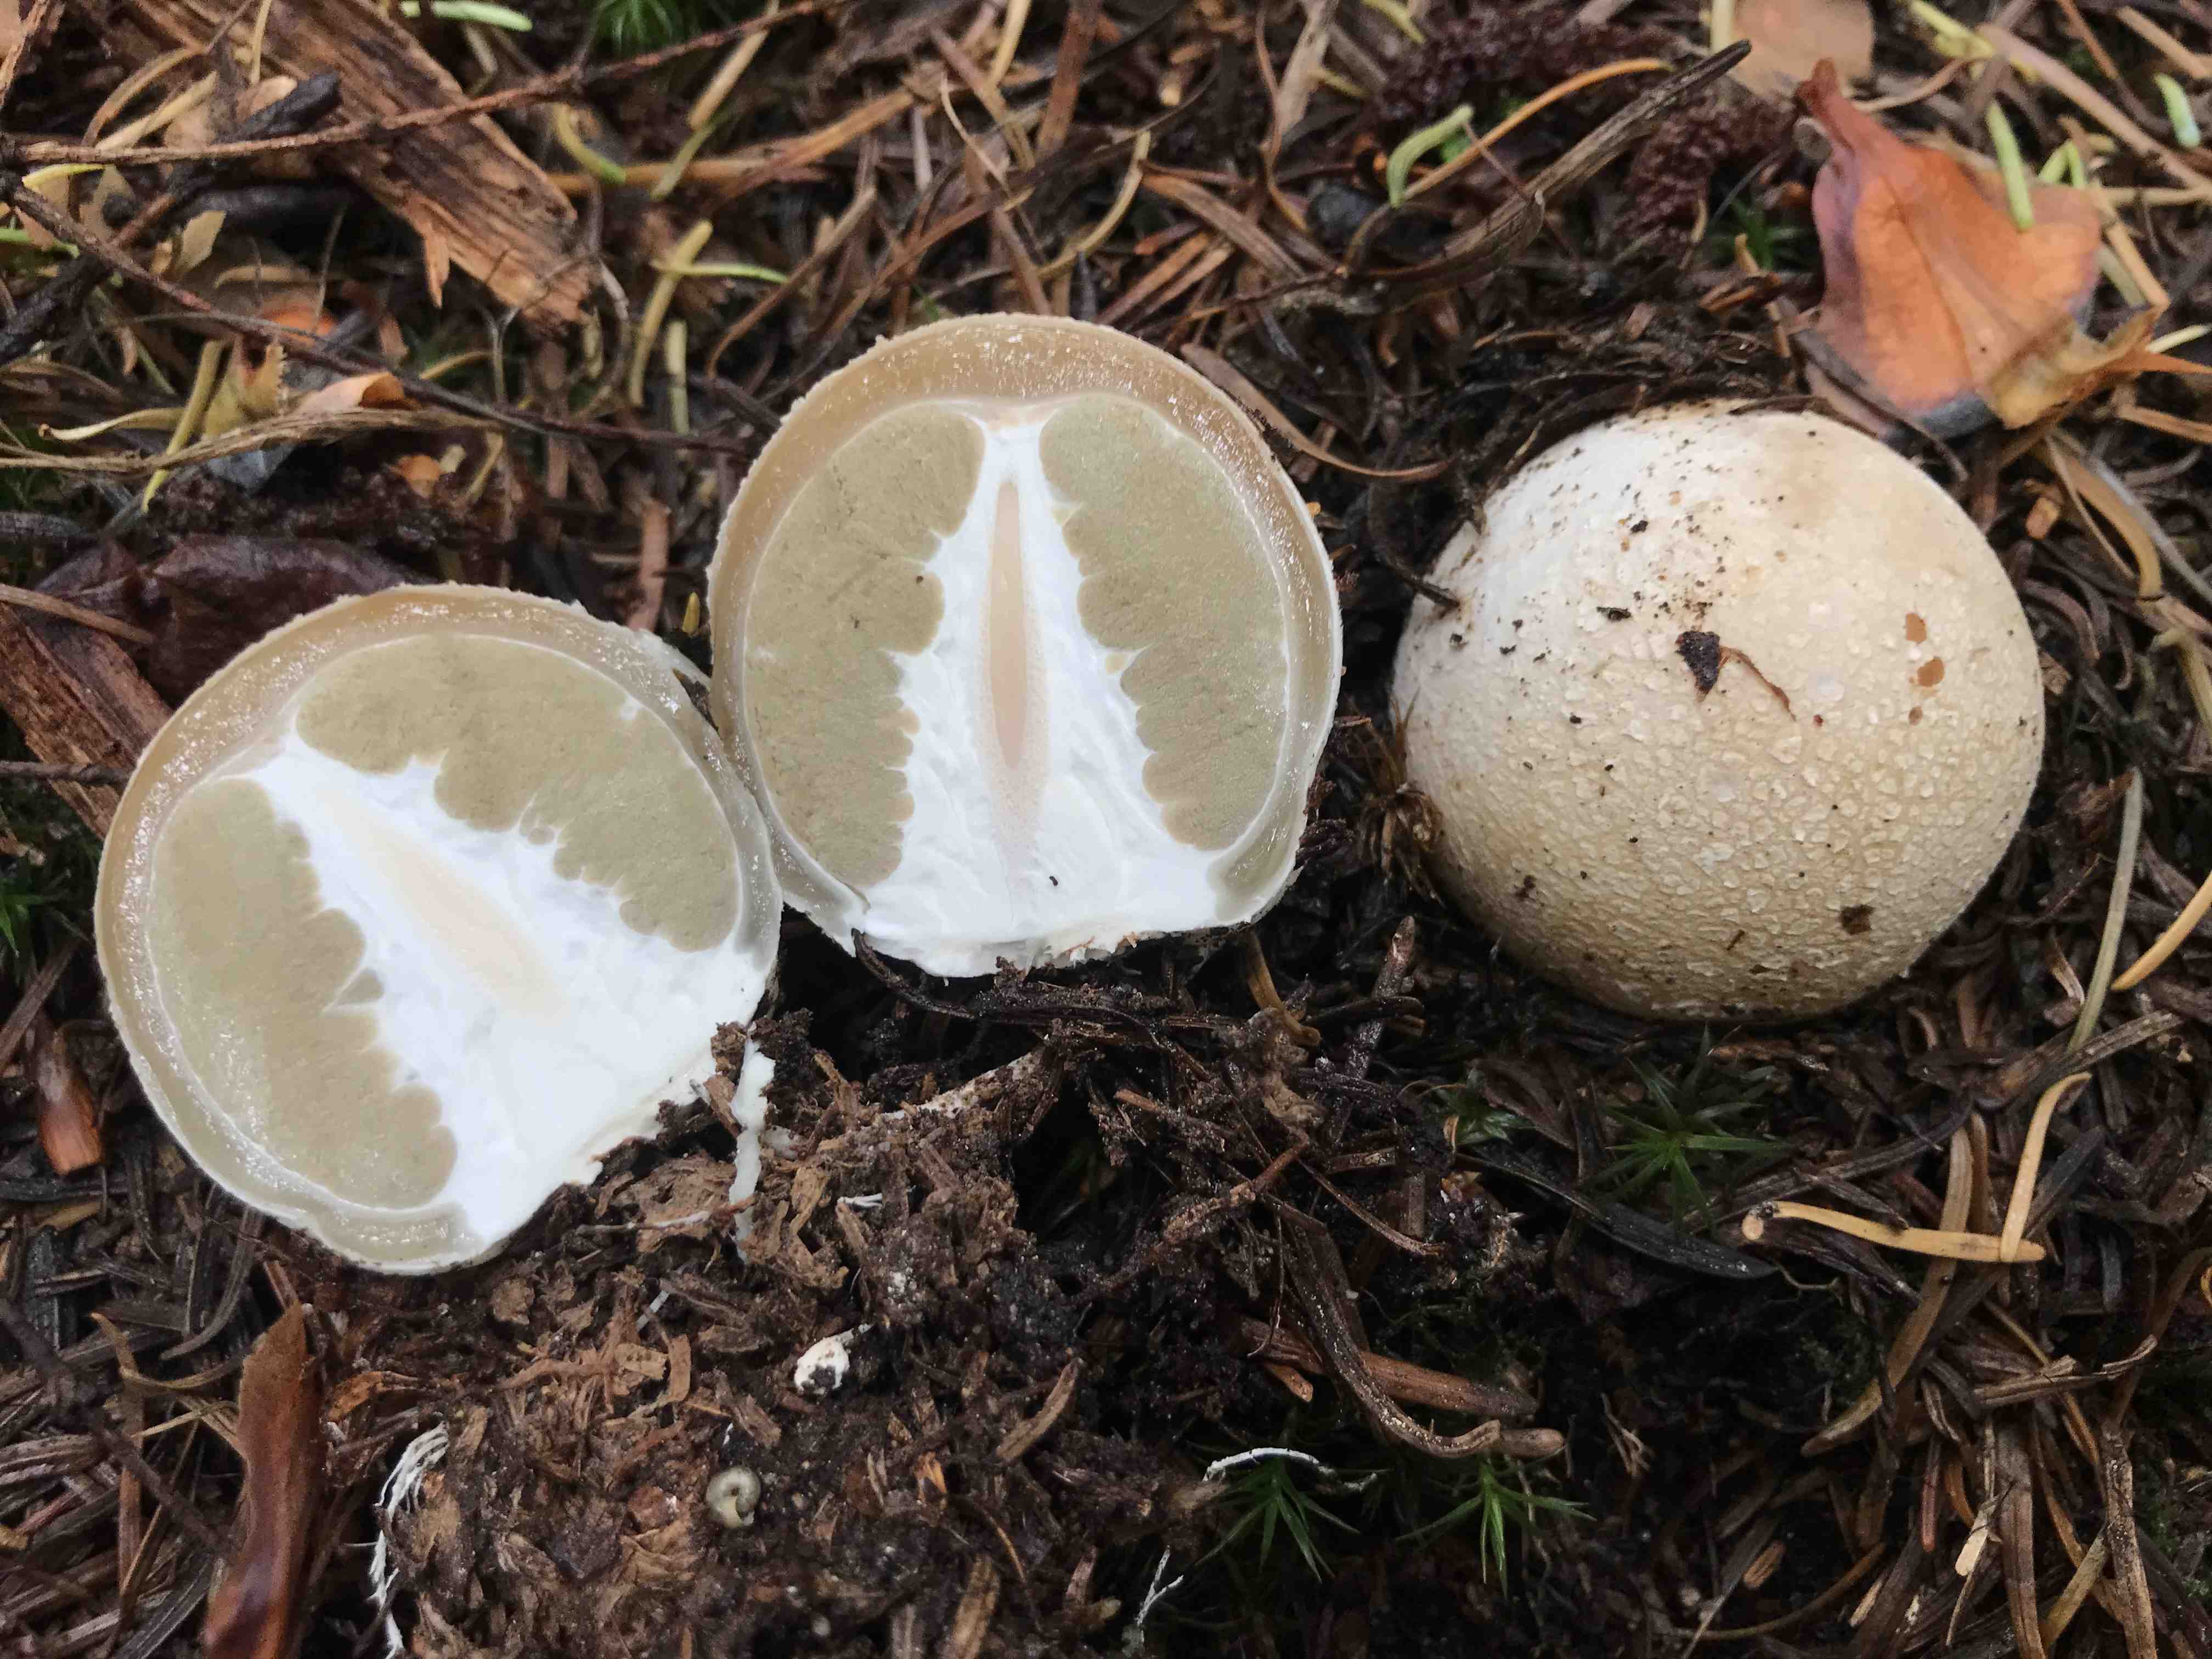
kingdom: Fungi
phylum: Basidiomycota
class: Agaricomycetes
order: Phallales
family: Phallaceae
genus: Phallus
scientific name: Phallus impudicus
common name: almindelig stinksvamp
